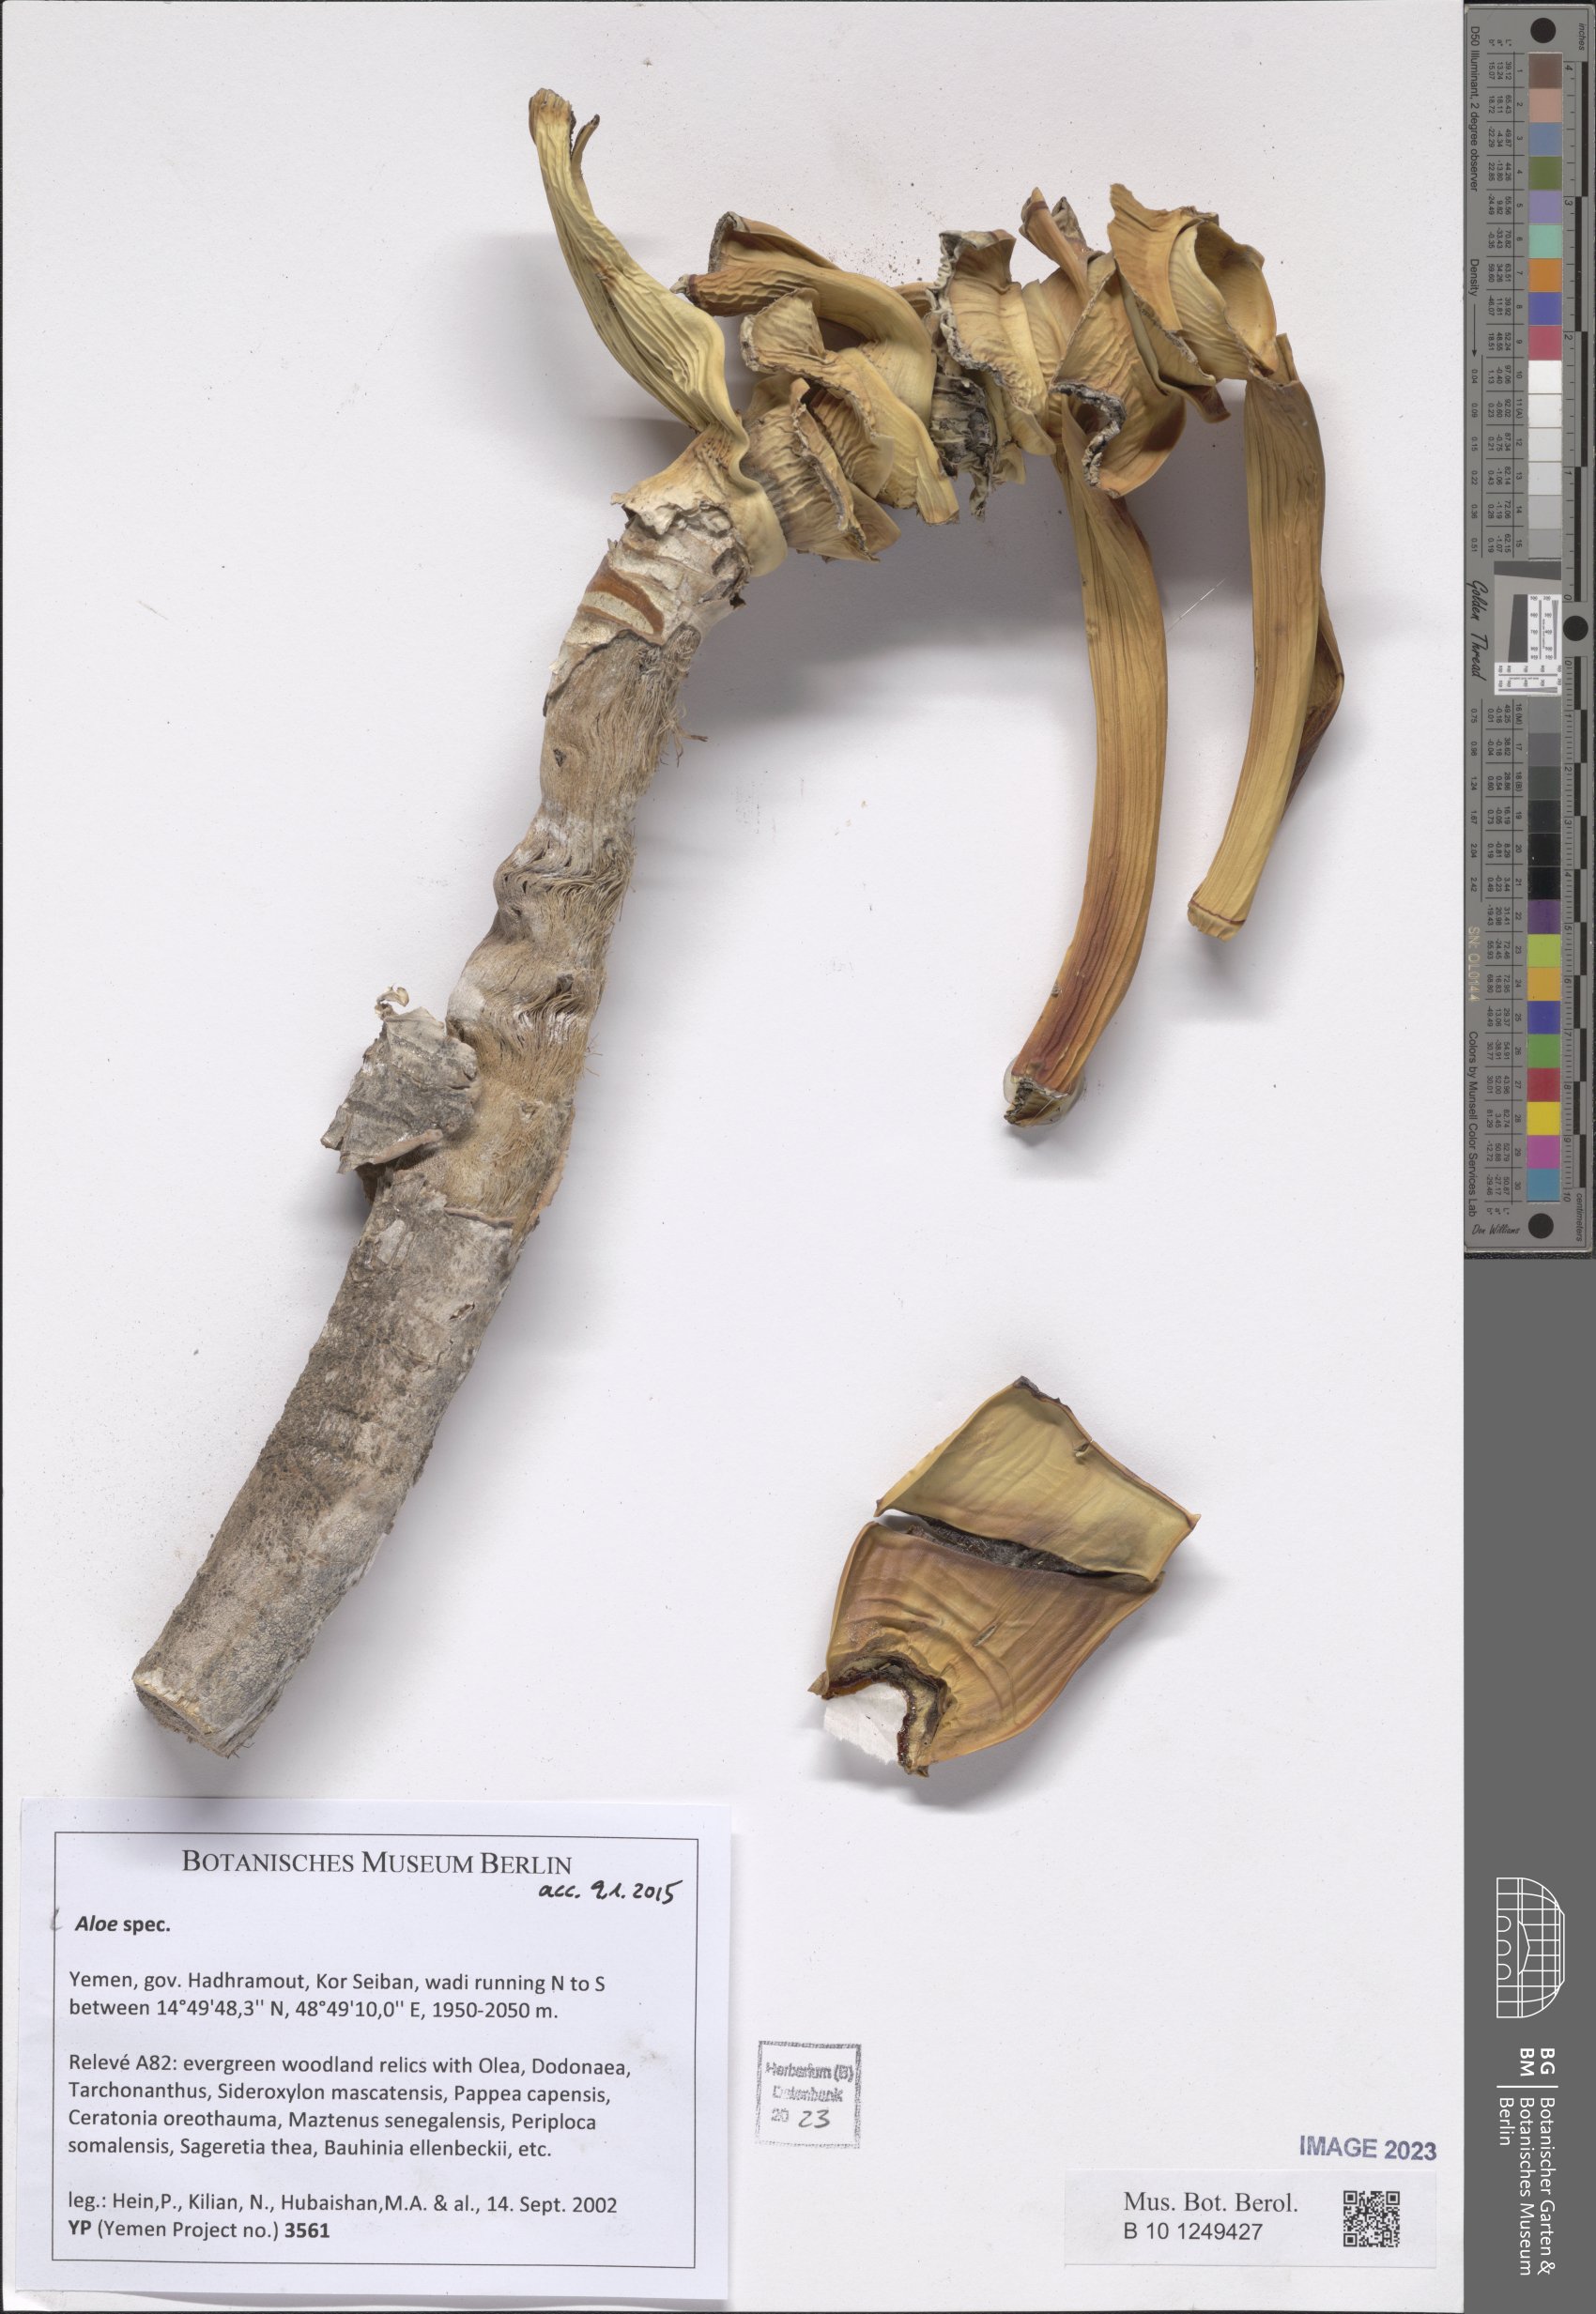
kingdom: Plantae
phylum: Tracheophyta
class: Liliopsida
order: Asparagales
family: Asphodelaceae
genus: Aloe
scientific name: Aloe
